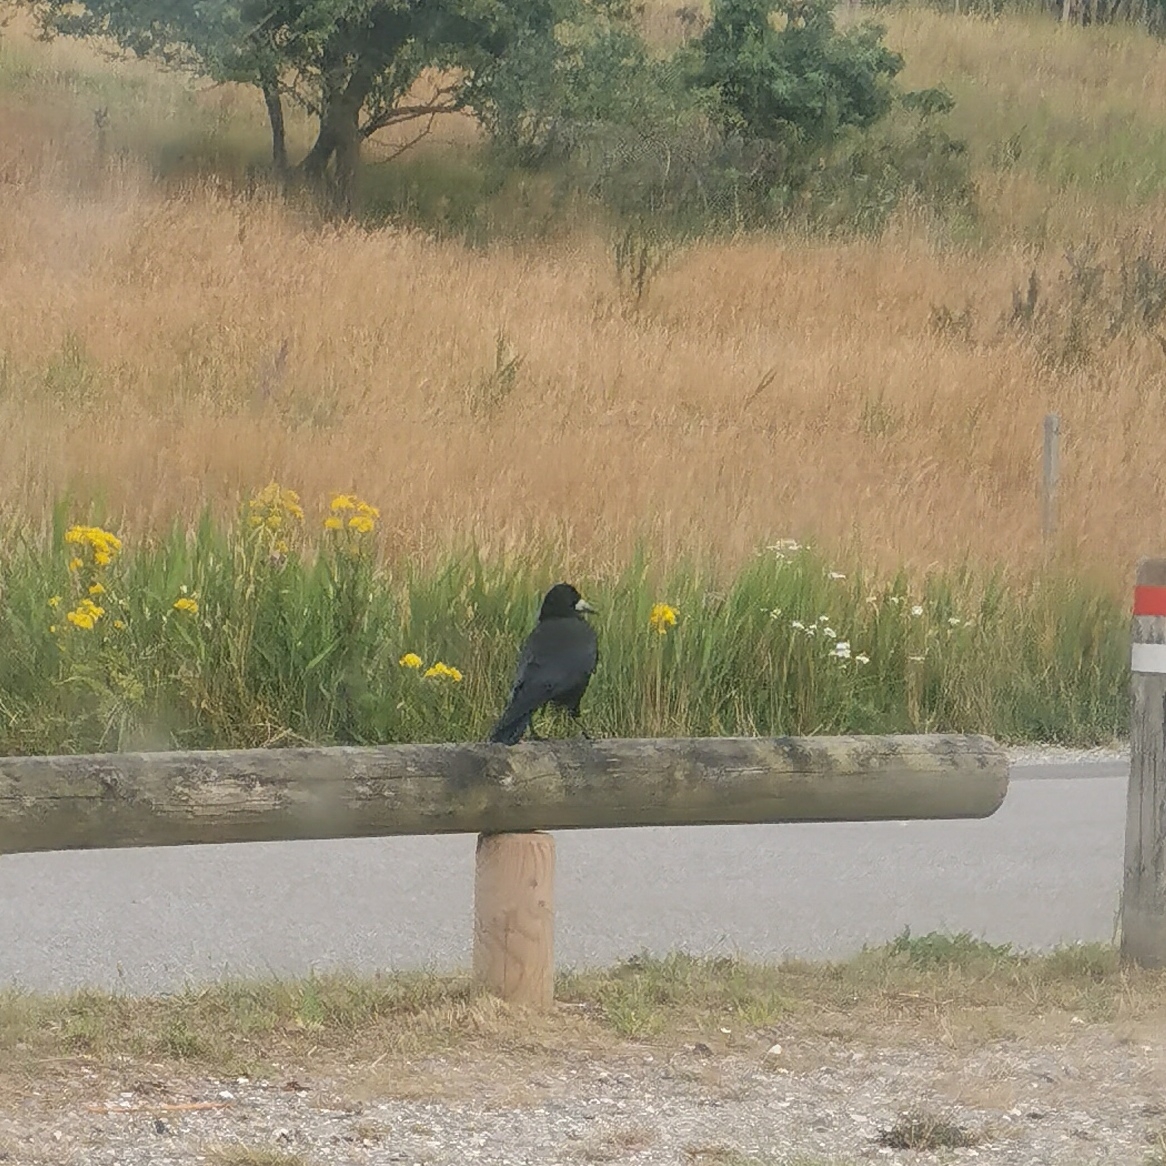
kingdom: Animalia
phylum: Chordata
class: Aves
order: Passeriformes
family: Corvidae
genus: Corvus
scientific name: Corvus frugilegus
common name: Råge
